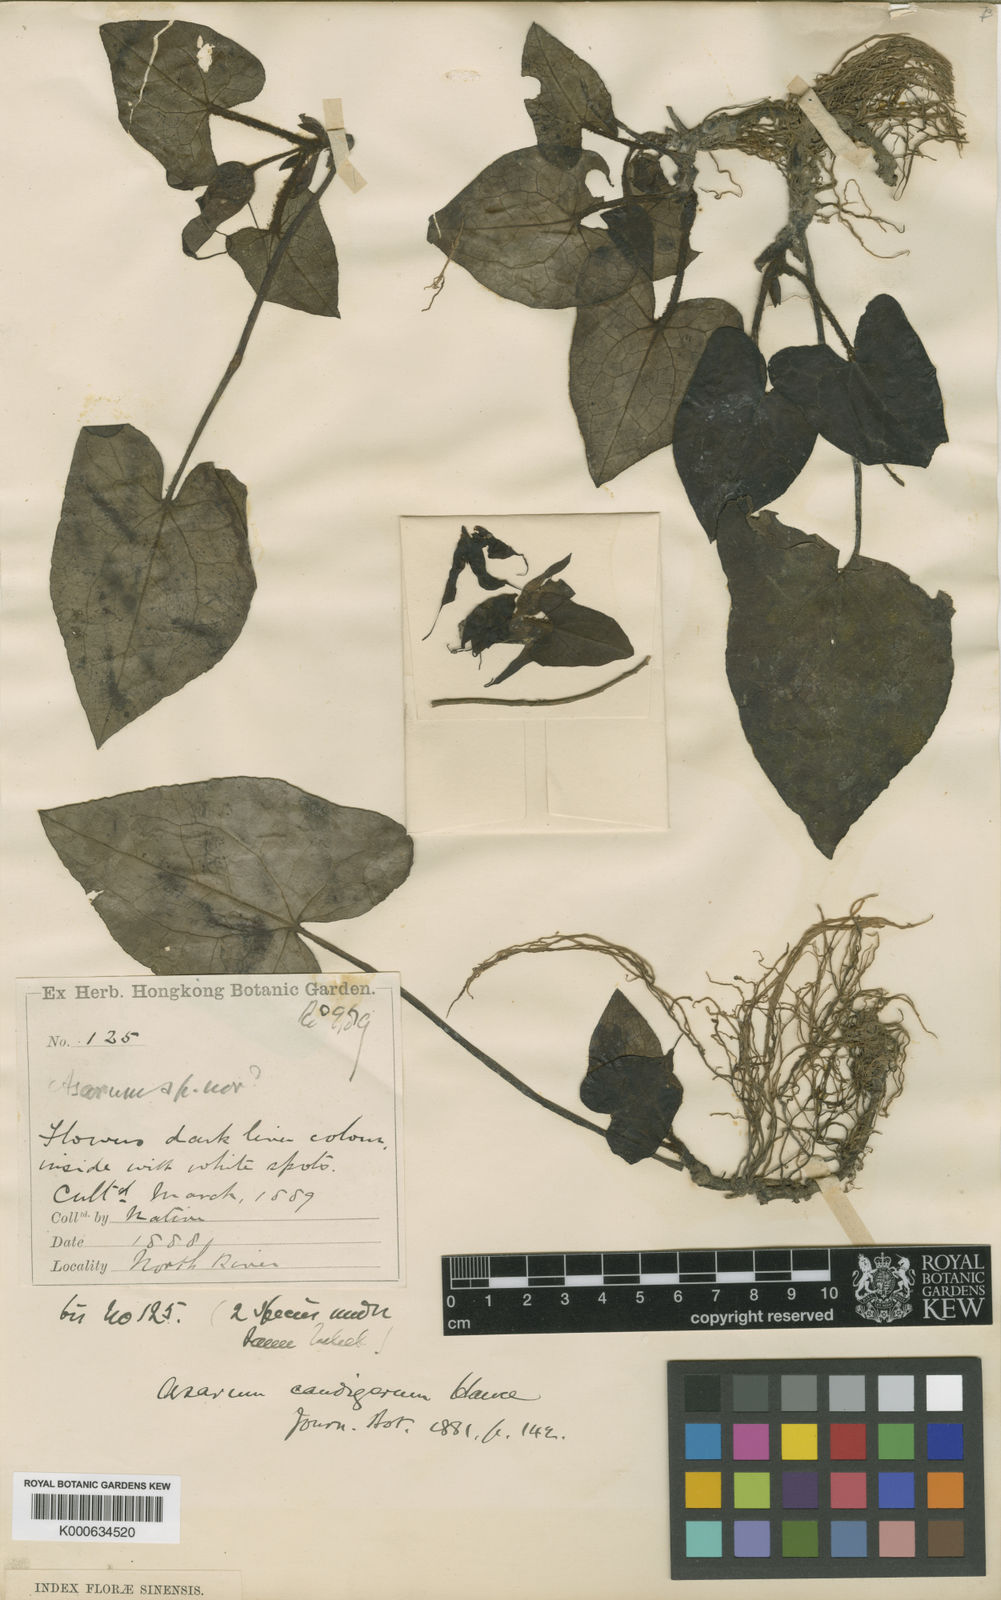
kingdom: Plantae
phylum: Tracheophyta
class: Magnoliopsida
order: Piperales
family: Aristolochiaceae
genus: Asarum
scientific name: Asarum caudigerum
